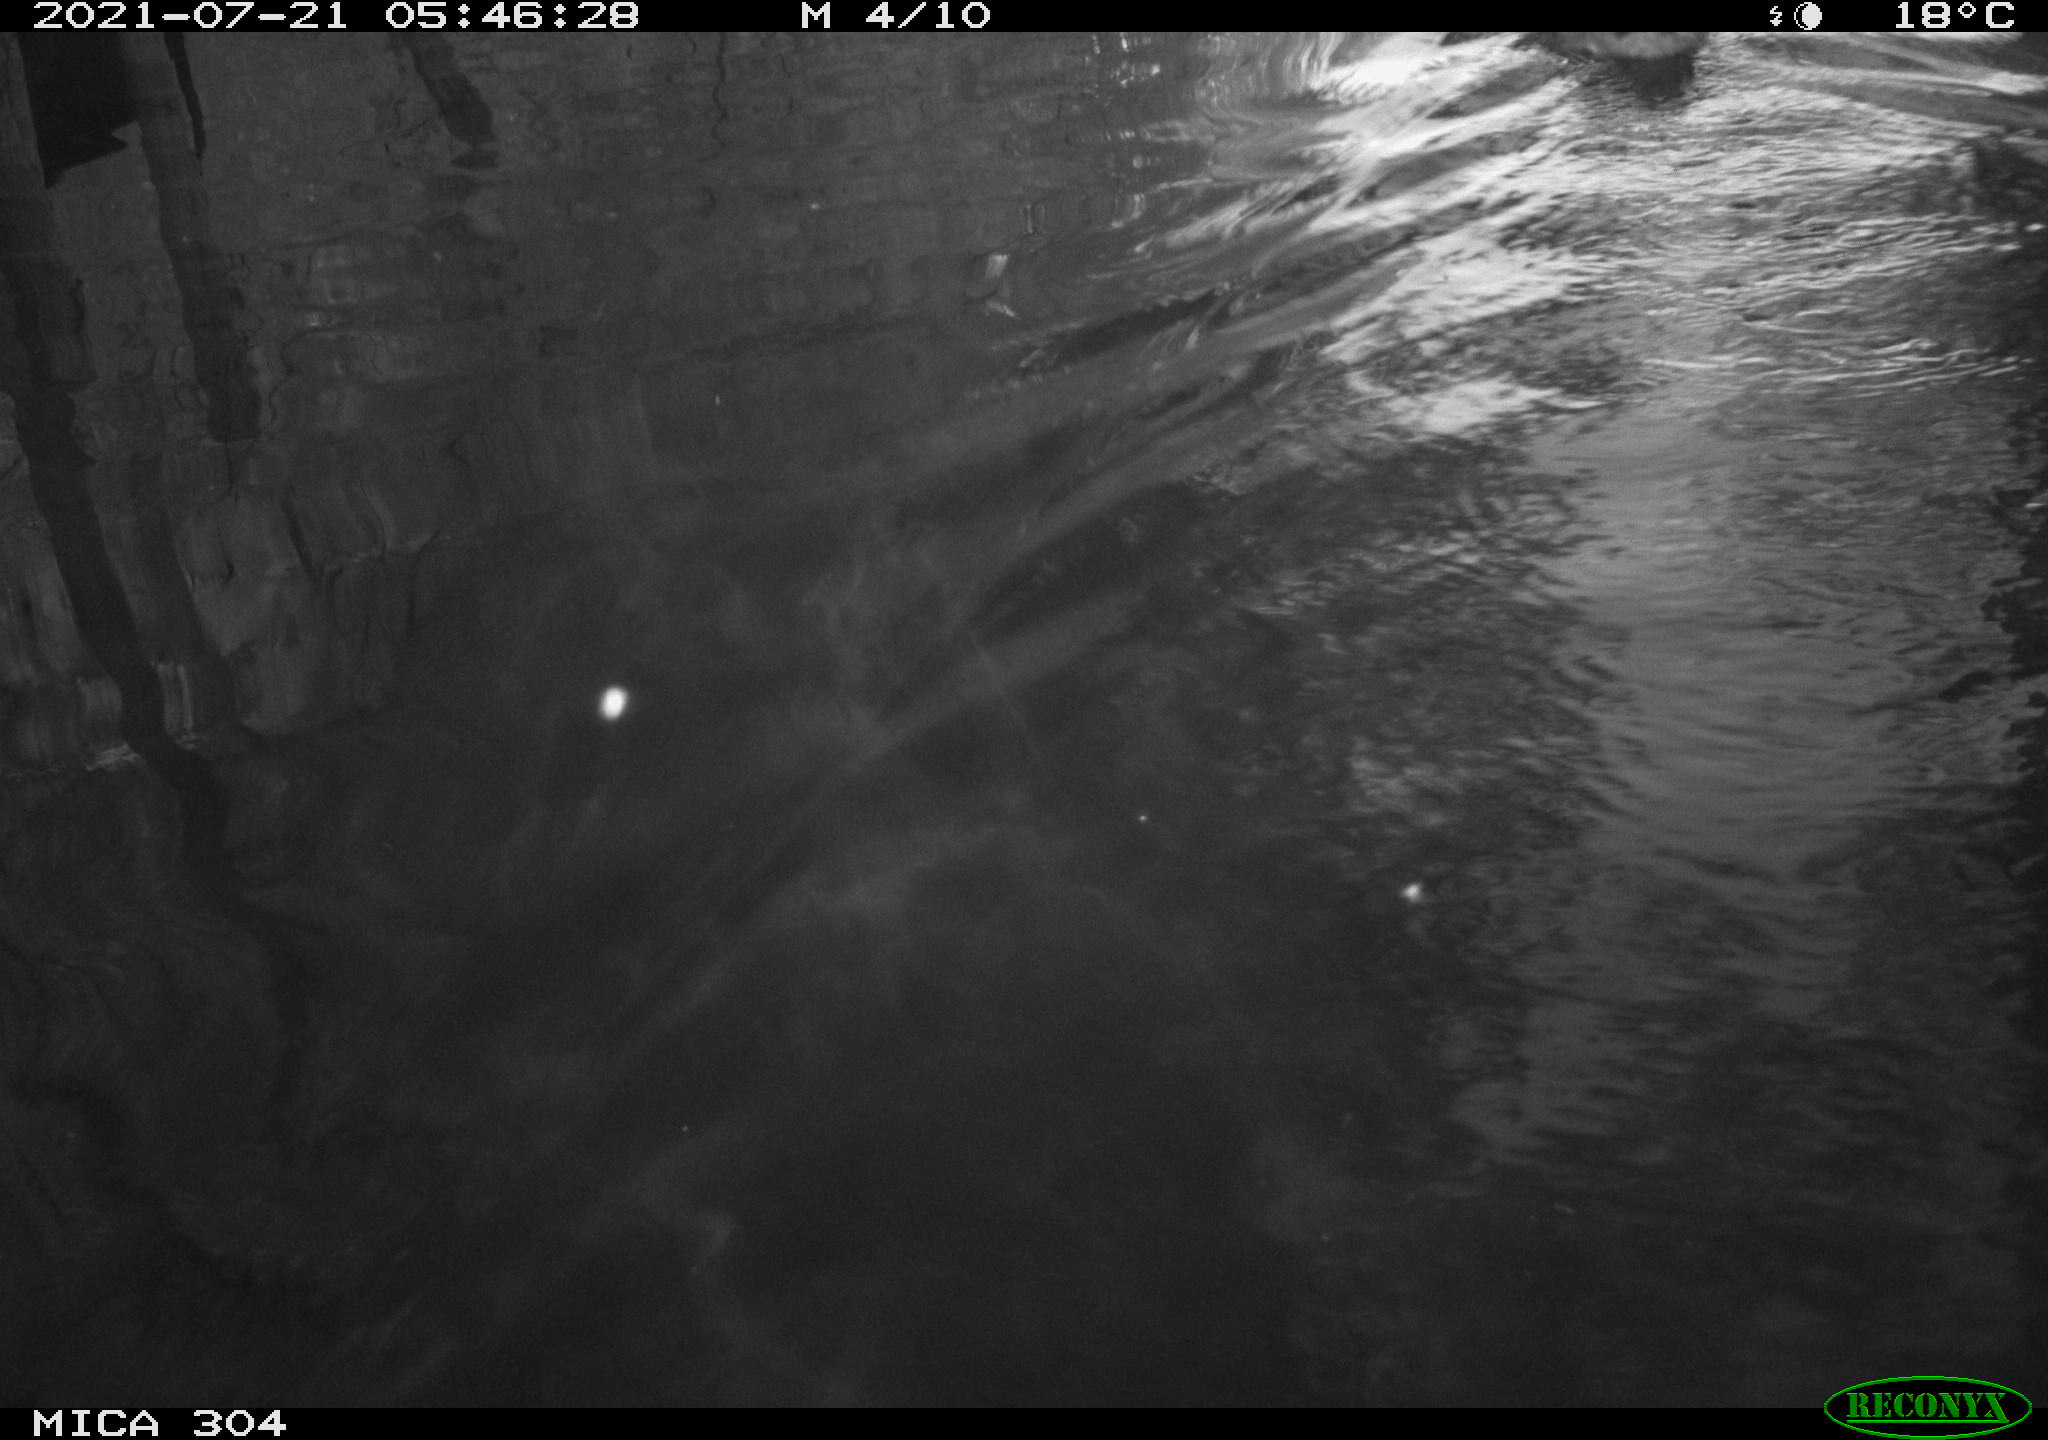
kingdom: Animalia
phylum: Chordata
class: Aves
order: Anseriformes
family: Anatidae
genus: Anas
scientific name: Anas platyrhynchos
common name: Mallard
